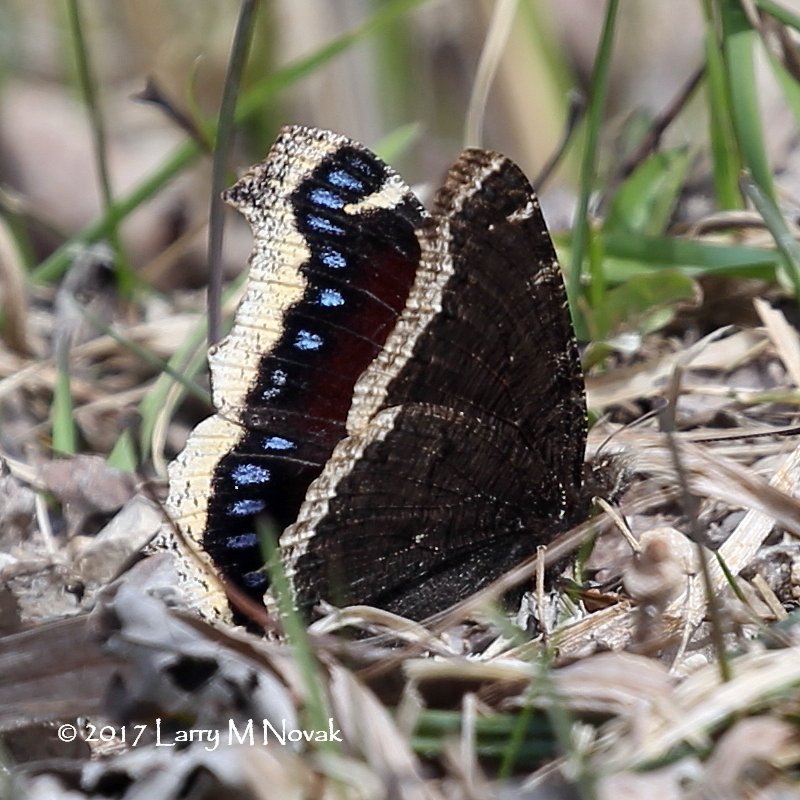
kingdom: Animalia
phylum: Arthropoda
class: Insecta
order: Lepidoptera
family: Nymphalidae
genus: Nymphalis
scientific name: Nymphalis antiopa
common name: Mourning Cloak
